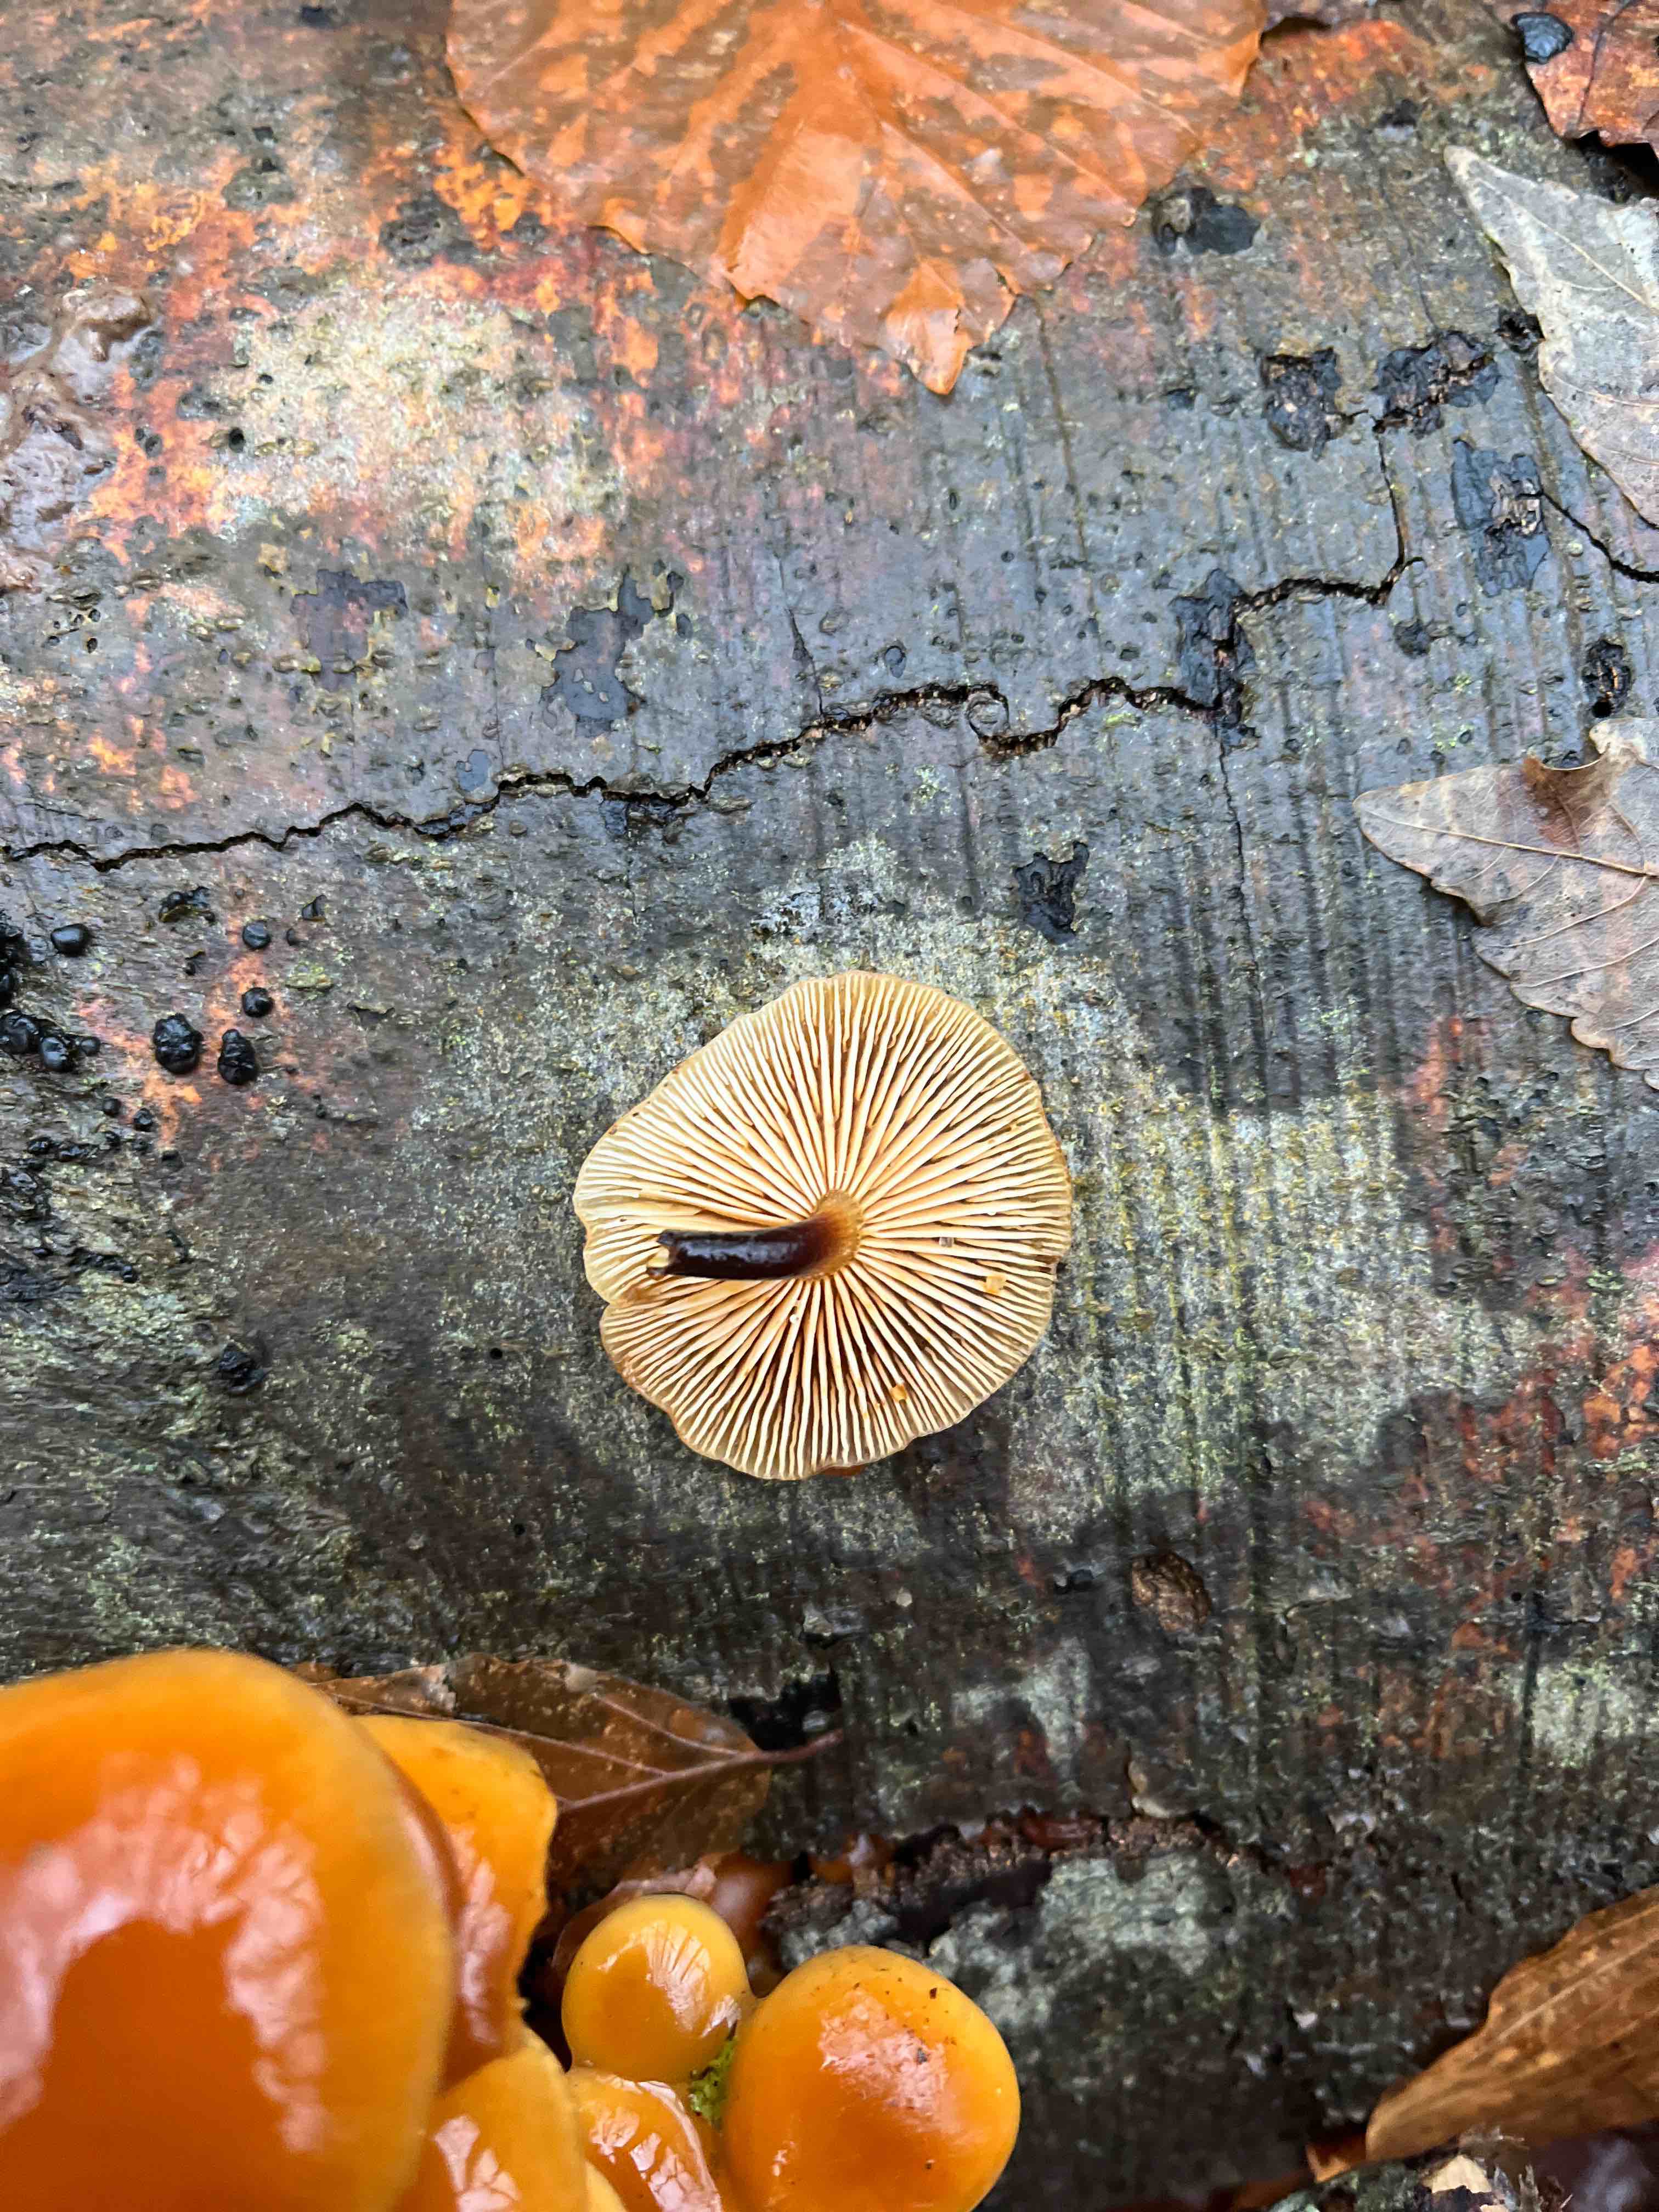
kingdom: Fungi
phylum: Basidiomycota
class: Agaricomycetes
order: Agaricales
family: Physalacriaceae
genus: Flammulina
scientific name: Flammulina velutipes
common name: gul fløjlsfod
